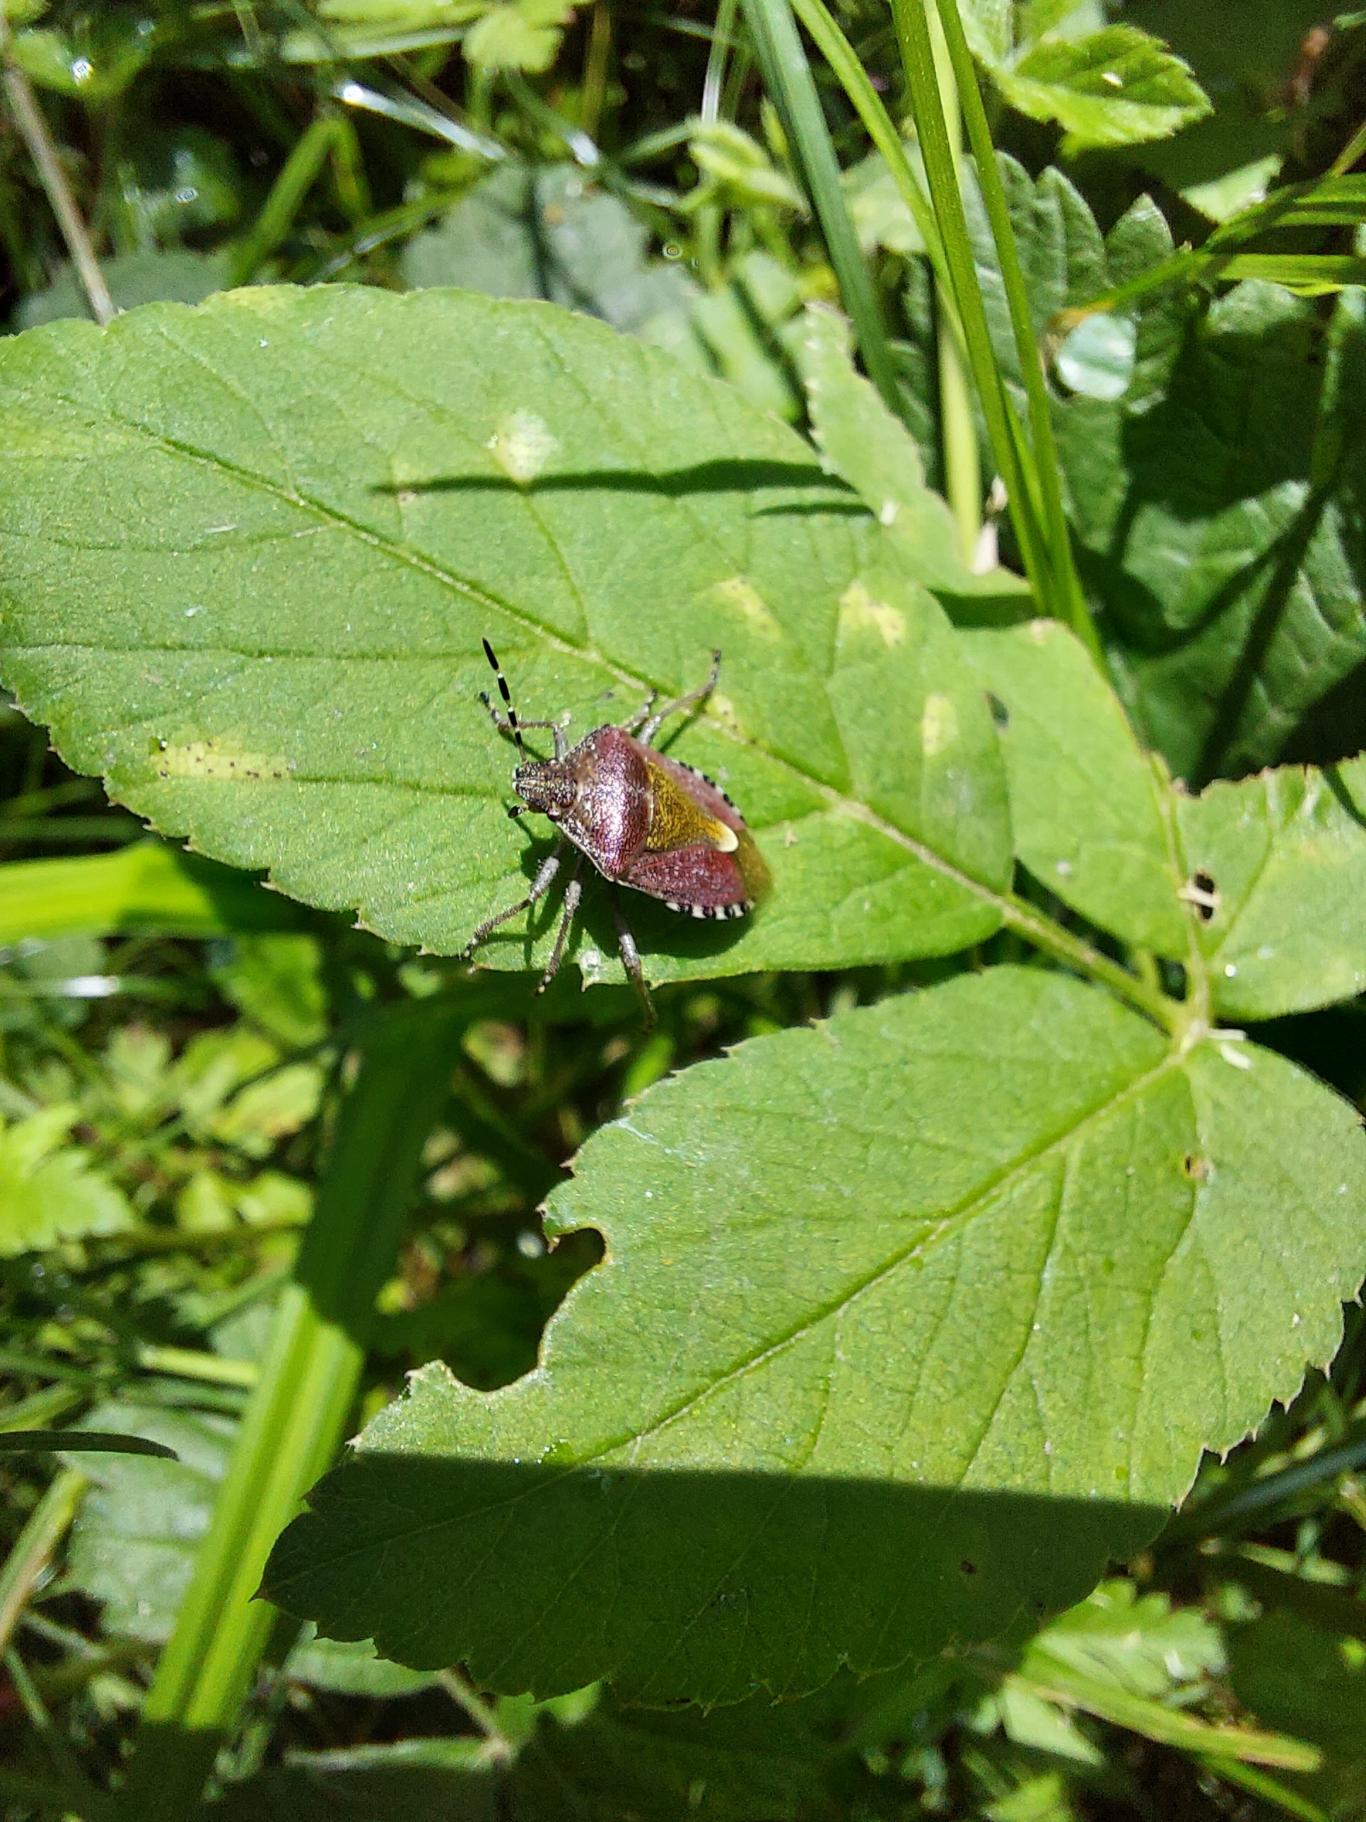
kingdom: Animalia
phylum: Arthropoda
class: Insecta
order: Hemiptera
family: Pentatomidae
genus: Dolycoris
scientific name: Dolycoris baccarum
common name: Almindelig bærtæge
